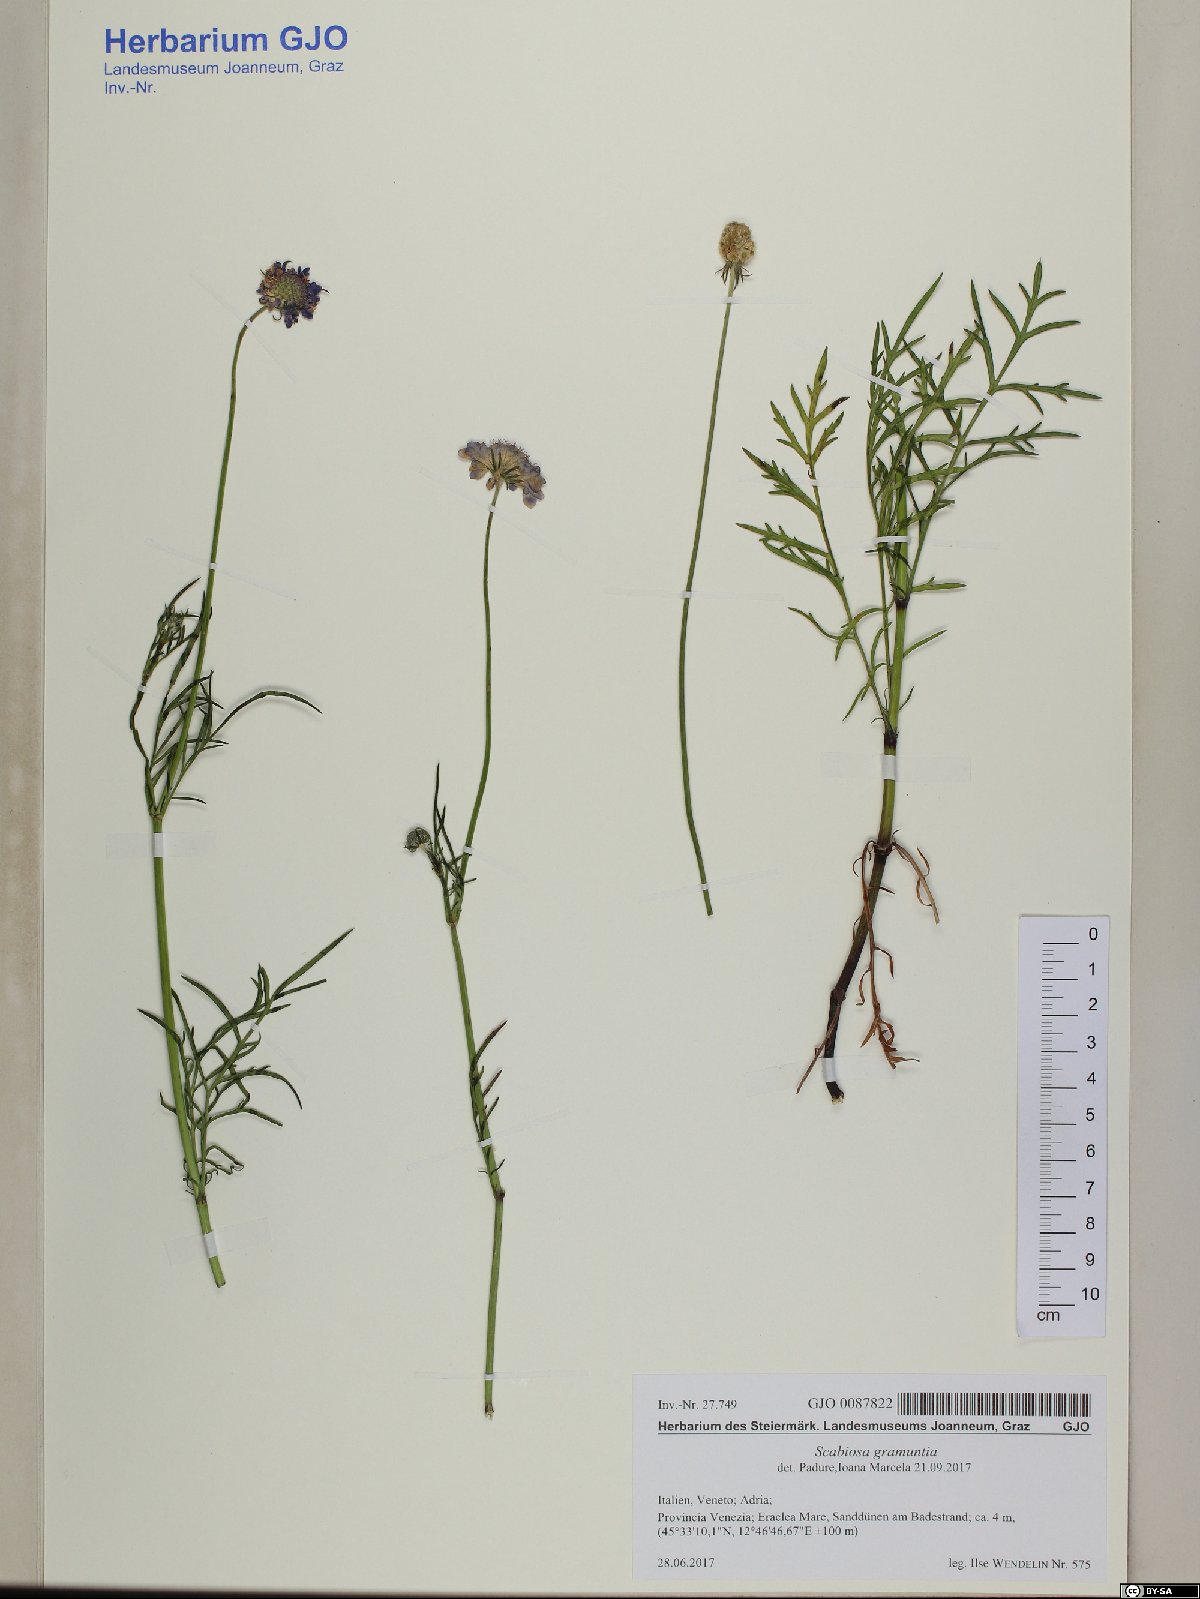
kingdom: Plantae
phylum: Tracheophyta
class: Magnoliopsida
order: Dipsacales
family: Caprifoliaceae
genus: Scabiosa
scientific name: Scabiosa triandra
